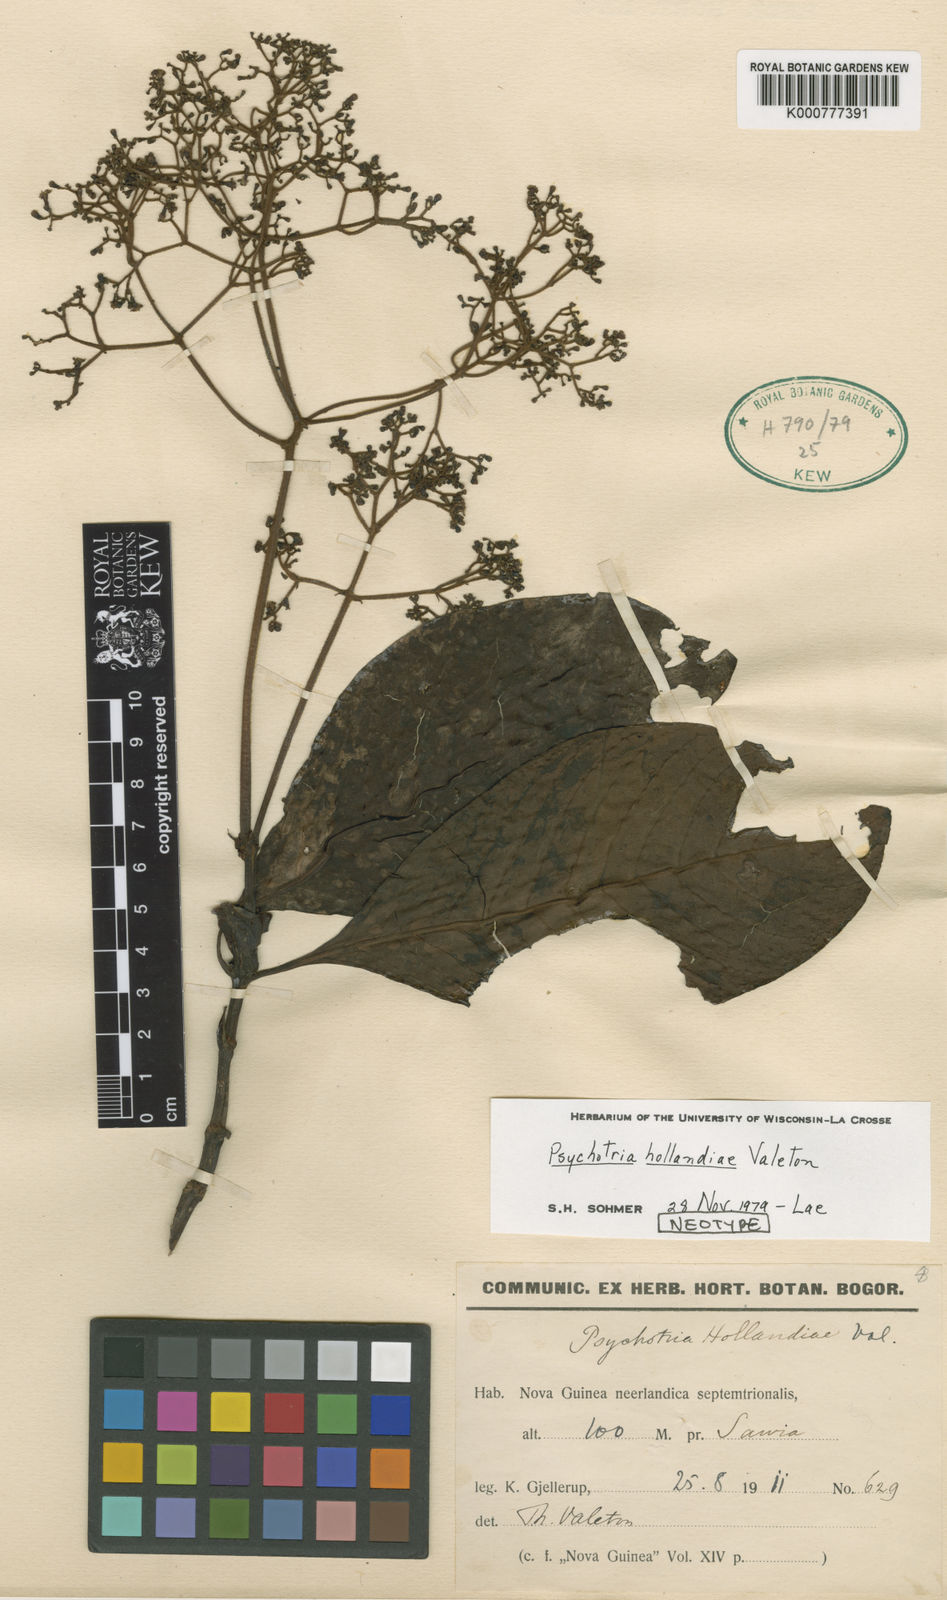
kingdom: Plantae
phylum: Tracheophyta
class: Magnoliopsida
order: Gentianales
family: Rubiaceae
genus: Psychotria
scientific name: Psychotria hollandiae
